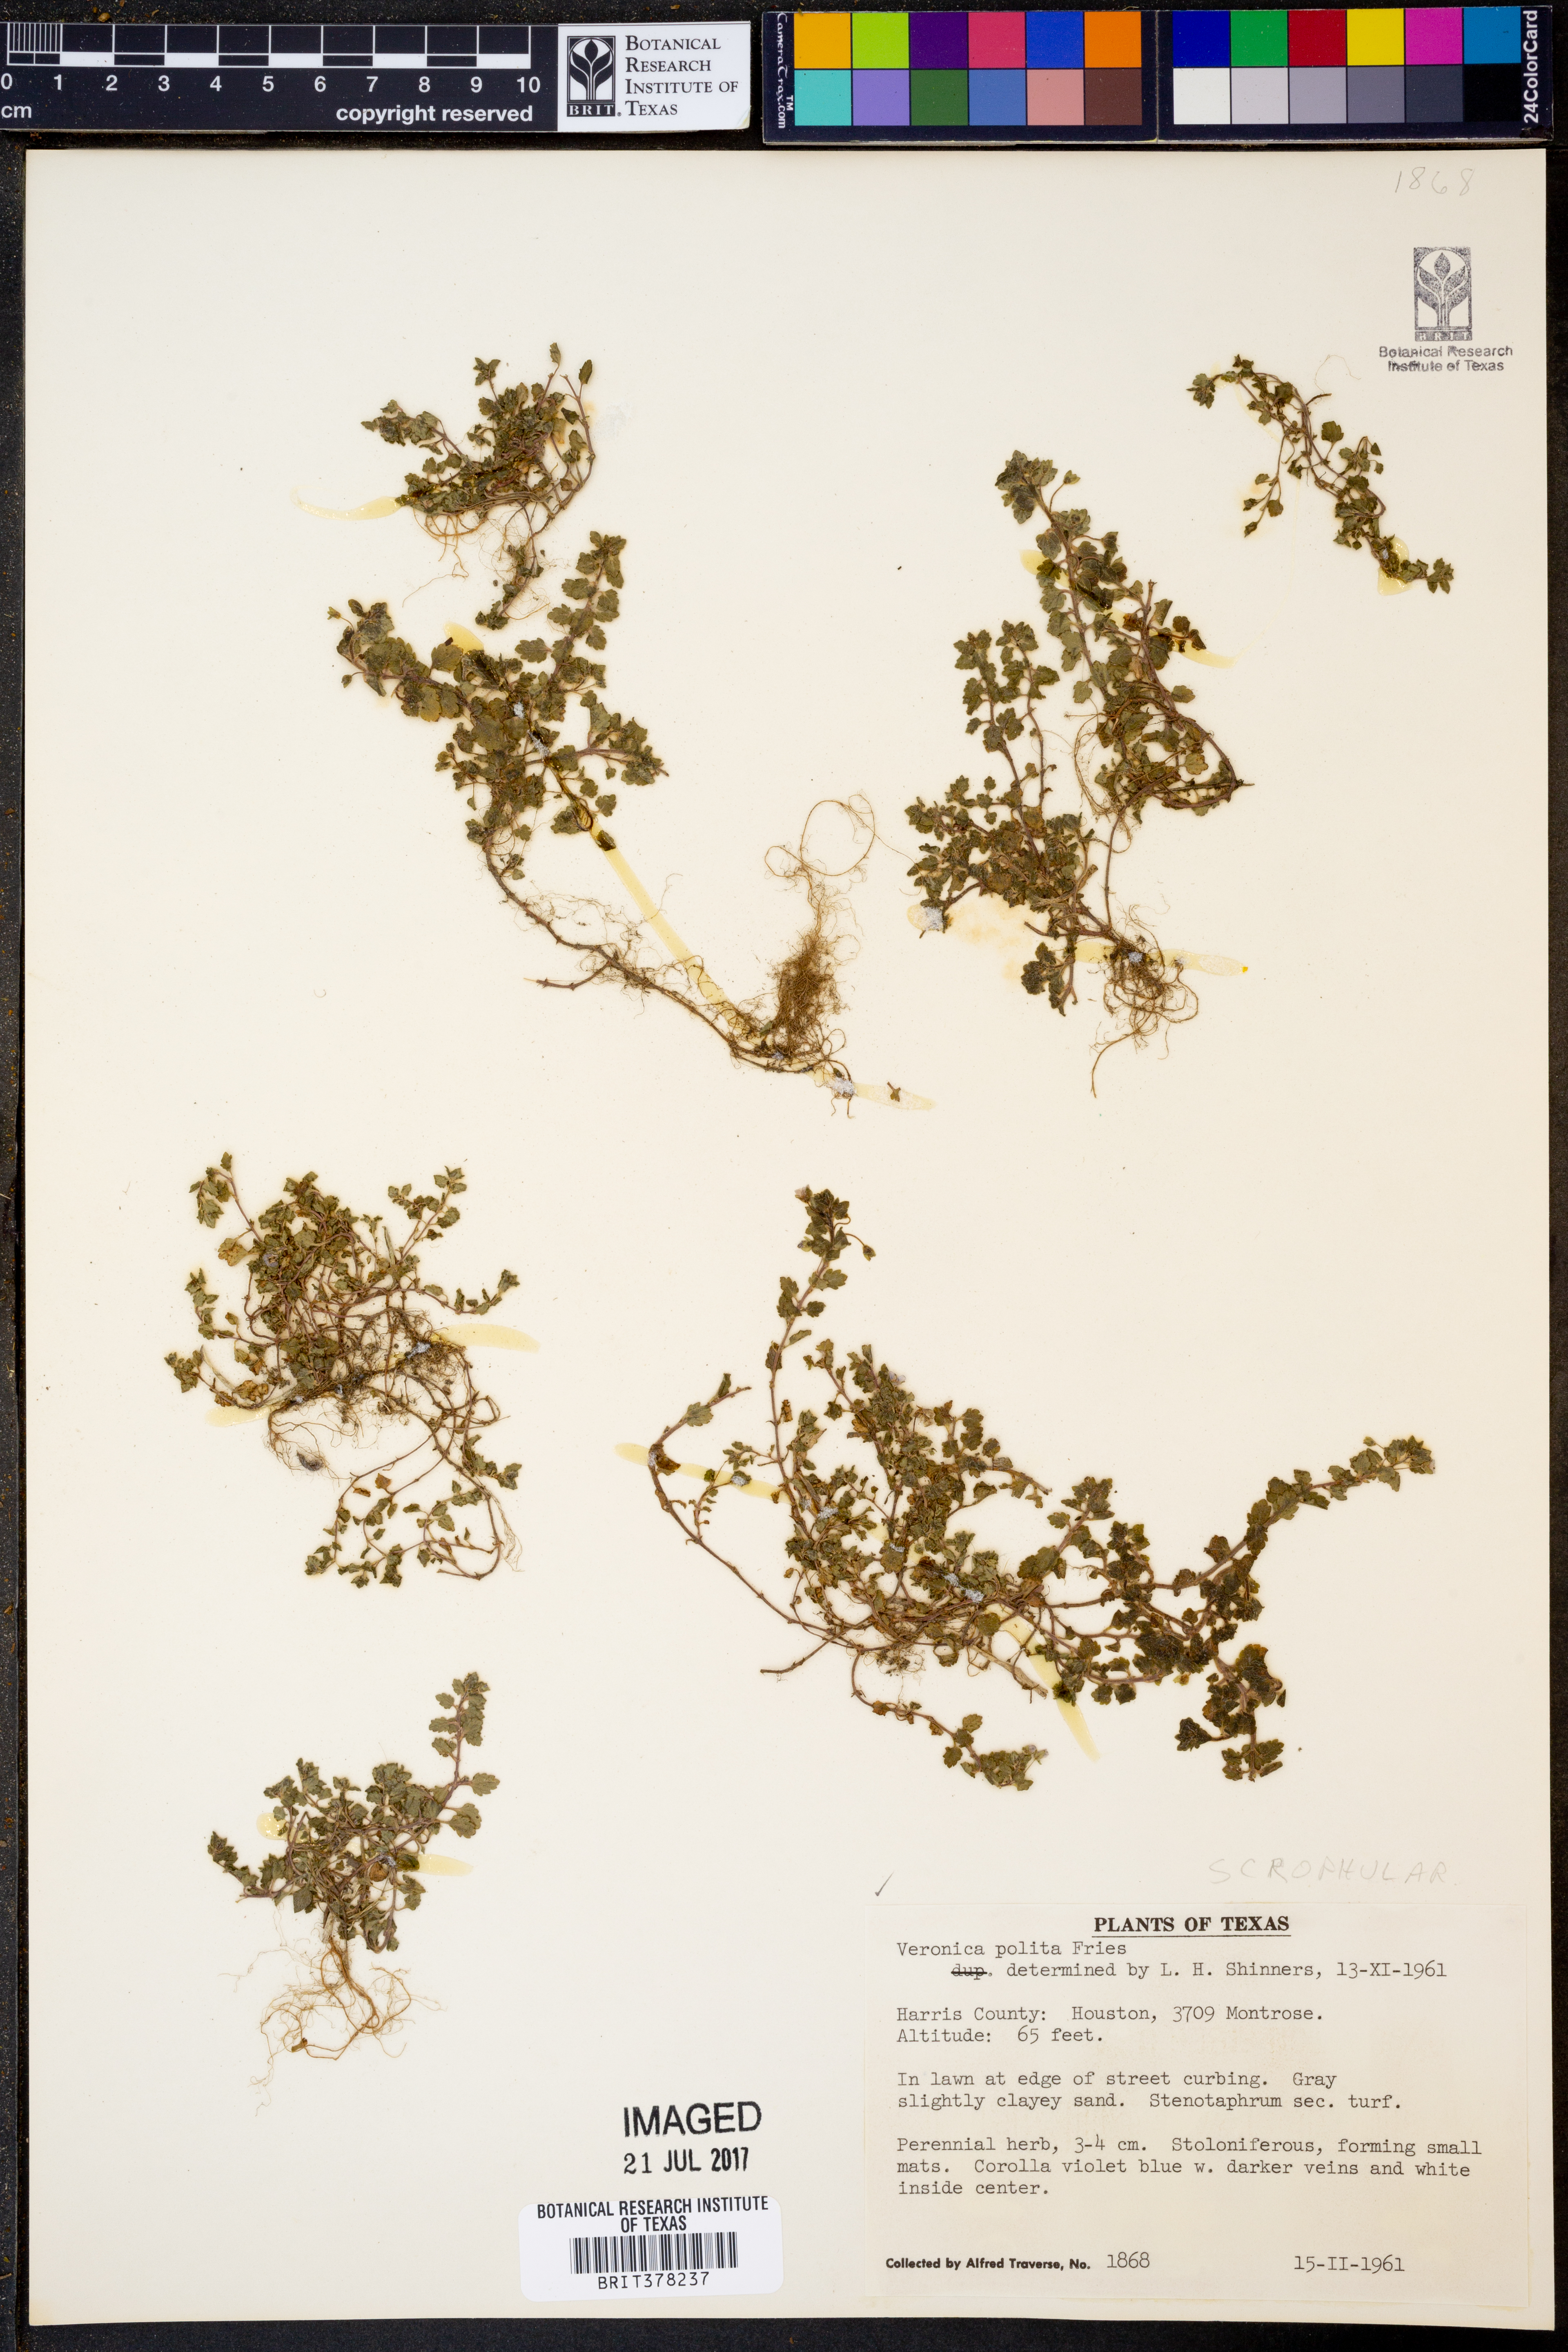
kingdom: Plantae
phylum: Tracheophyta
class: Magnoliopsida
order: Lamiales
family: Plantaginaceae
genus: Veronica
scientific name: Veronica polita
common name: Grey field-speedwell
